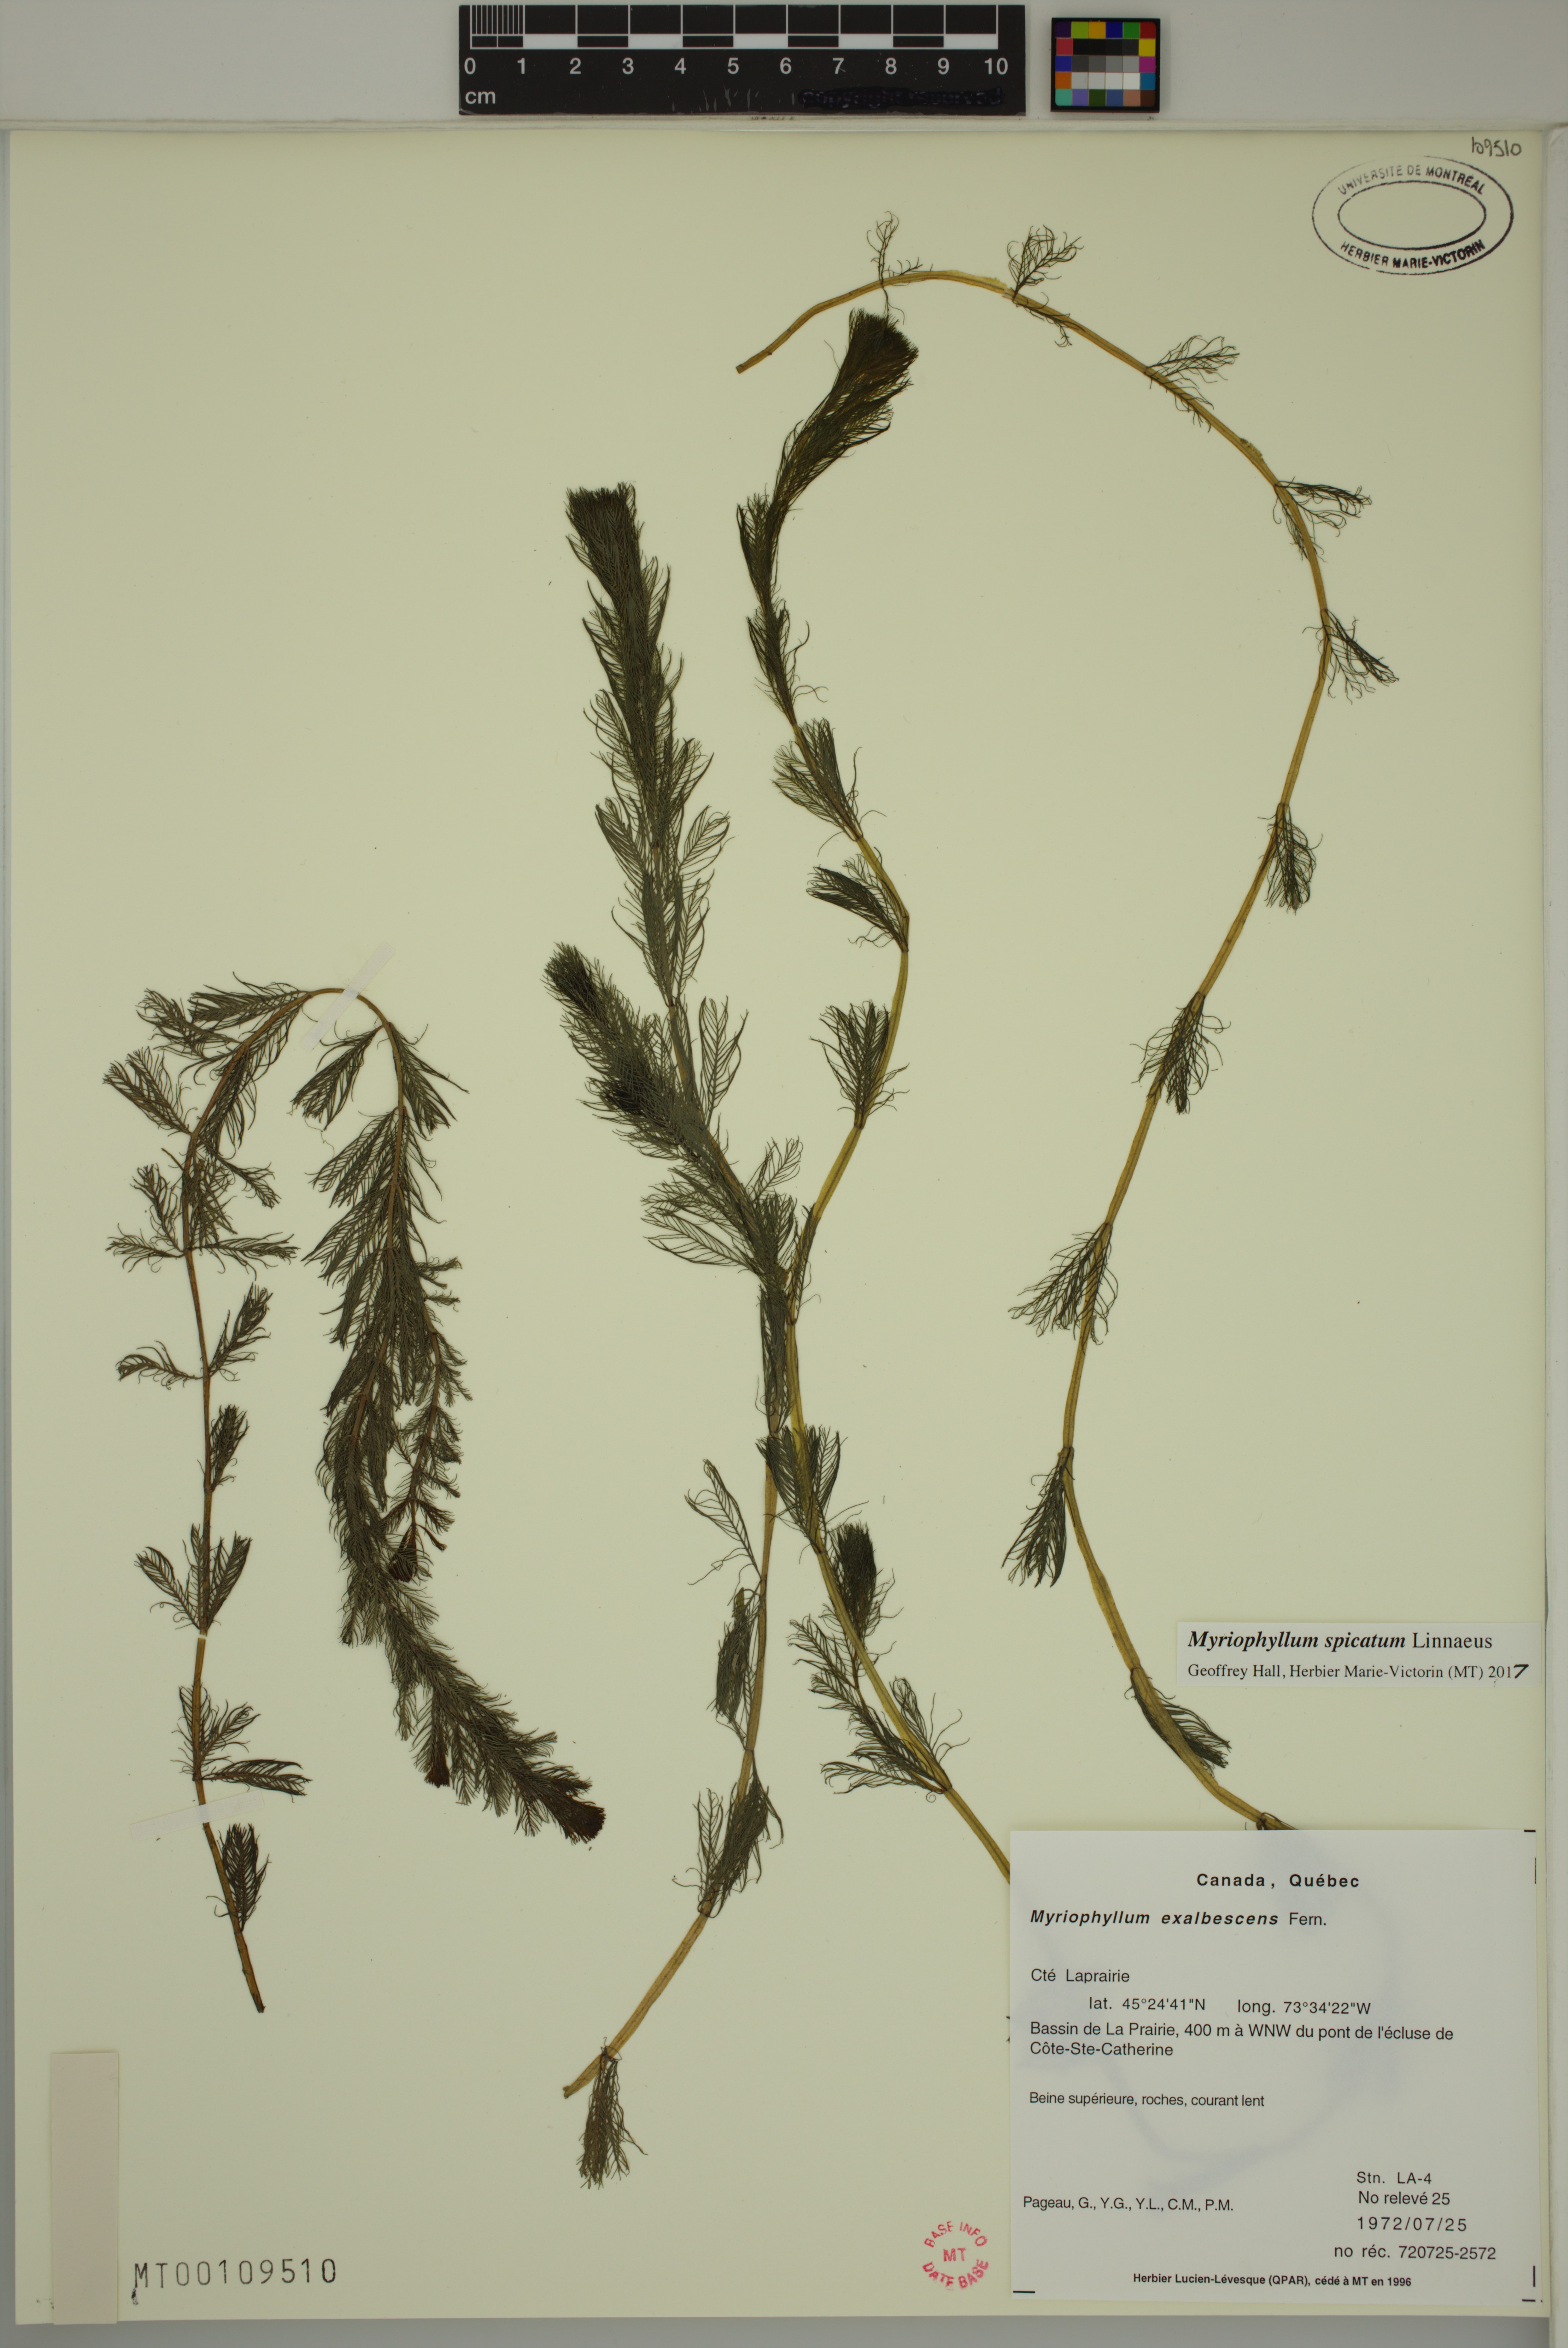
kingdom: Plantae
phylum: Tracheophyta
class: Magnoliopsida
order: Saxifragales
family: Haloragaceae
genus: Myriophyllum
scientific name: Myriophyllum spicatum
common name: Spiked water-milfoil
